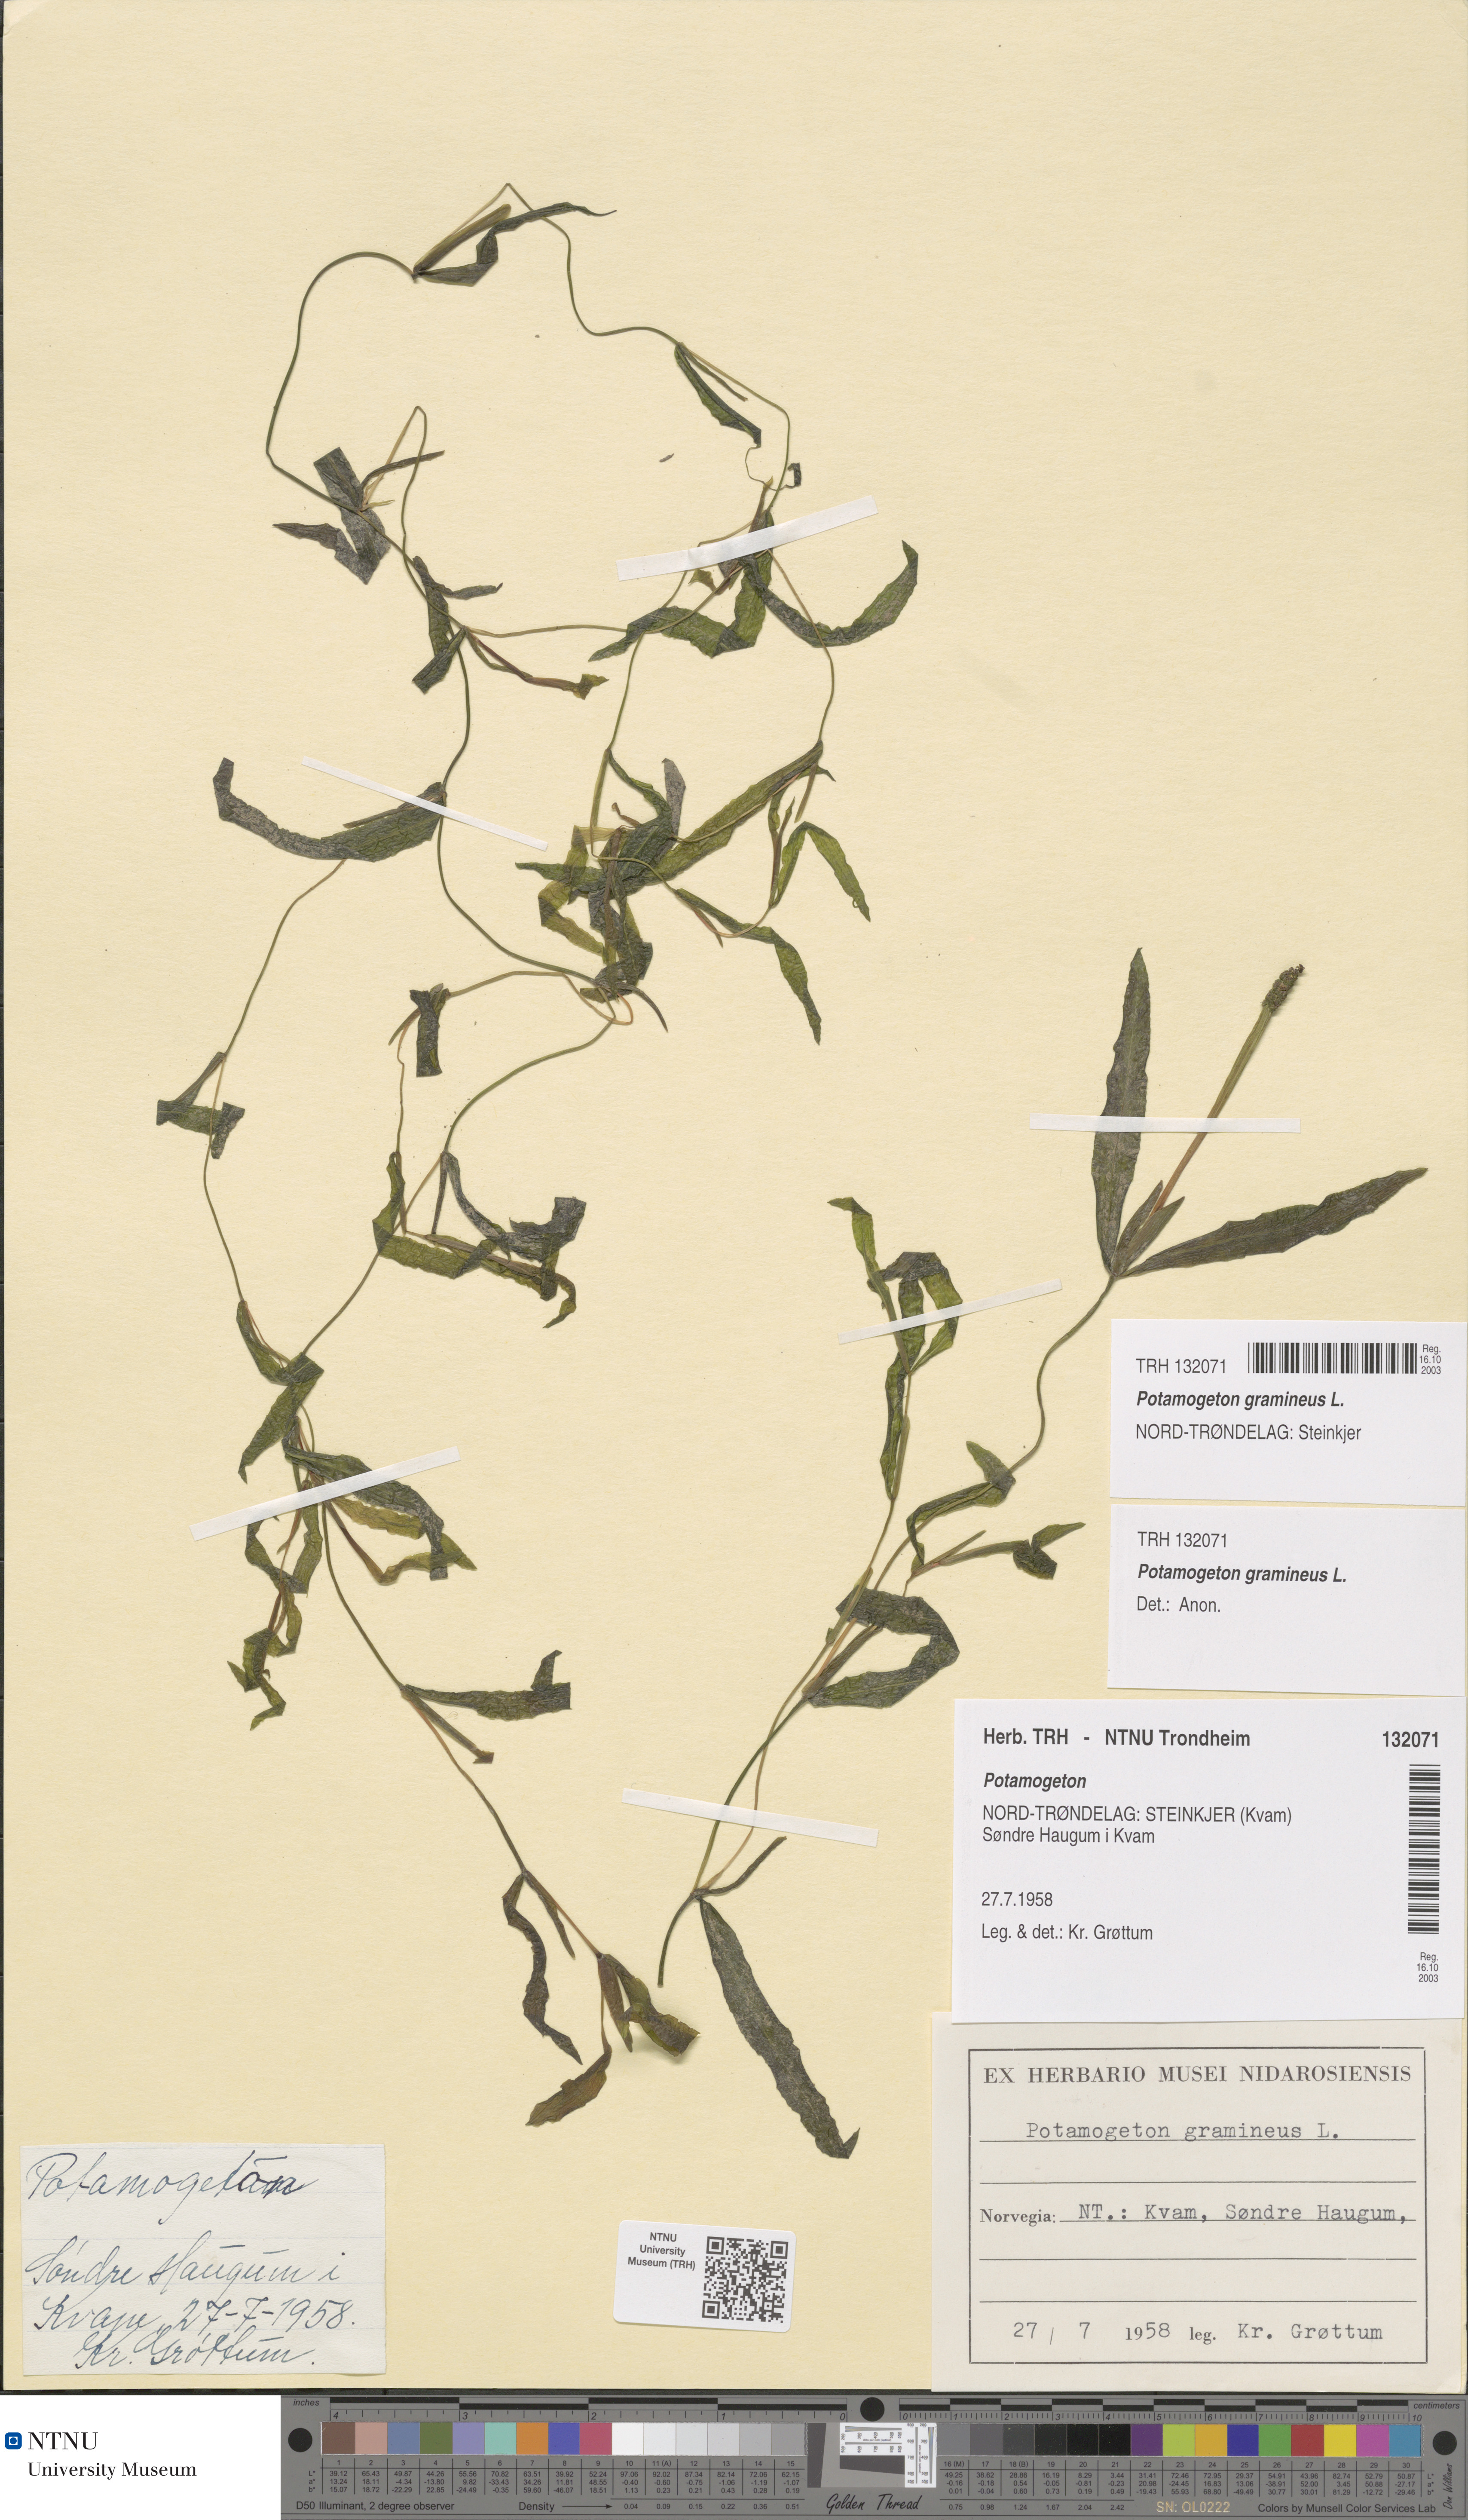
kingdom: Plantae
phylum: Tracheophyta
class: Liliopsida
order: Alismatales
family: Potamogetonaceae
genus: Potamogeton
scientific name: Potamogeton gramineus
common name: Various-leaved pondweed
